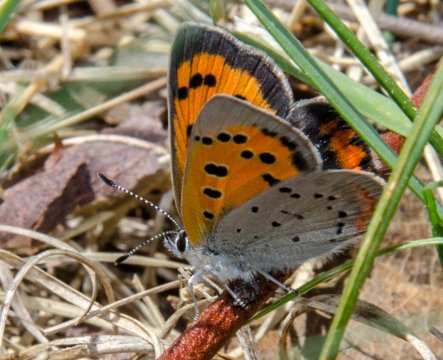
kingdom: Animalia
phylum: Arthropoda
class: Insecta
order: Lepidoptera
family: Lycaenidae
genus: Lycaena
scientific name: Lycaena phlaeas
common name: American Copper
